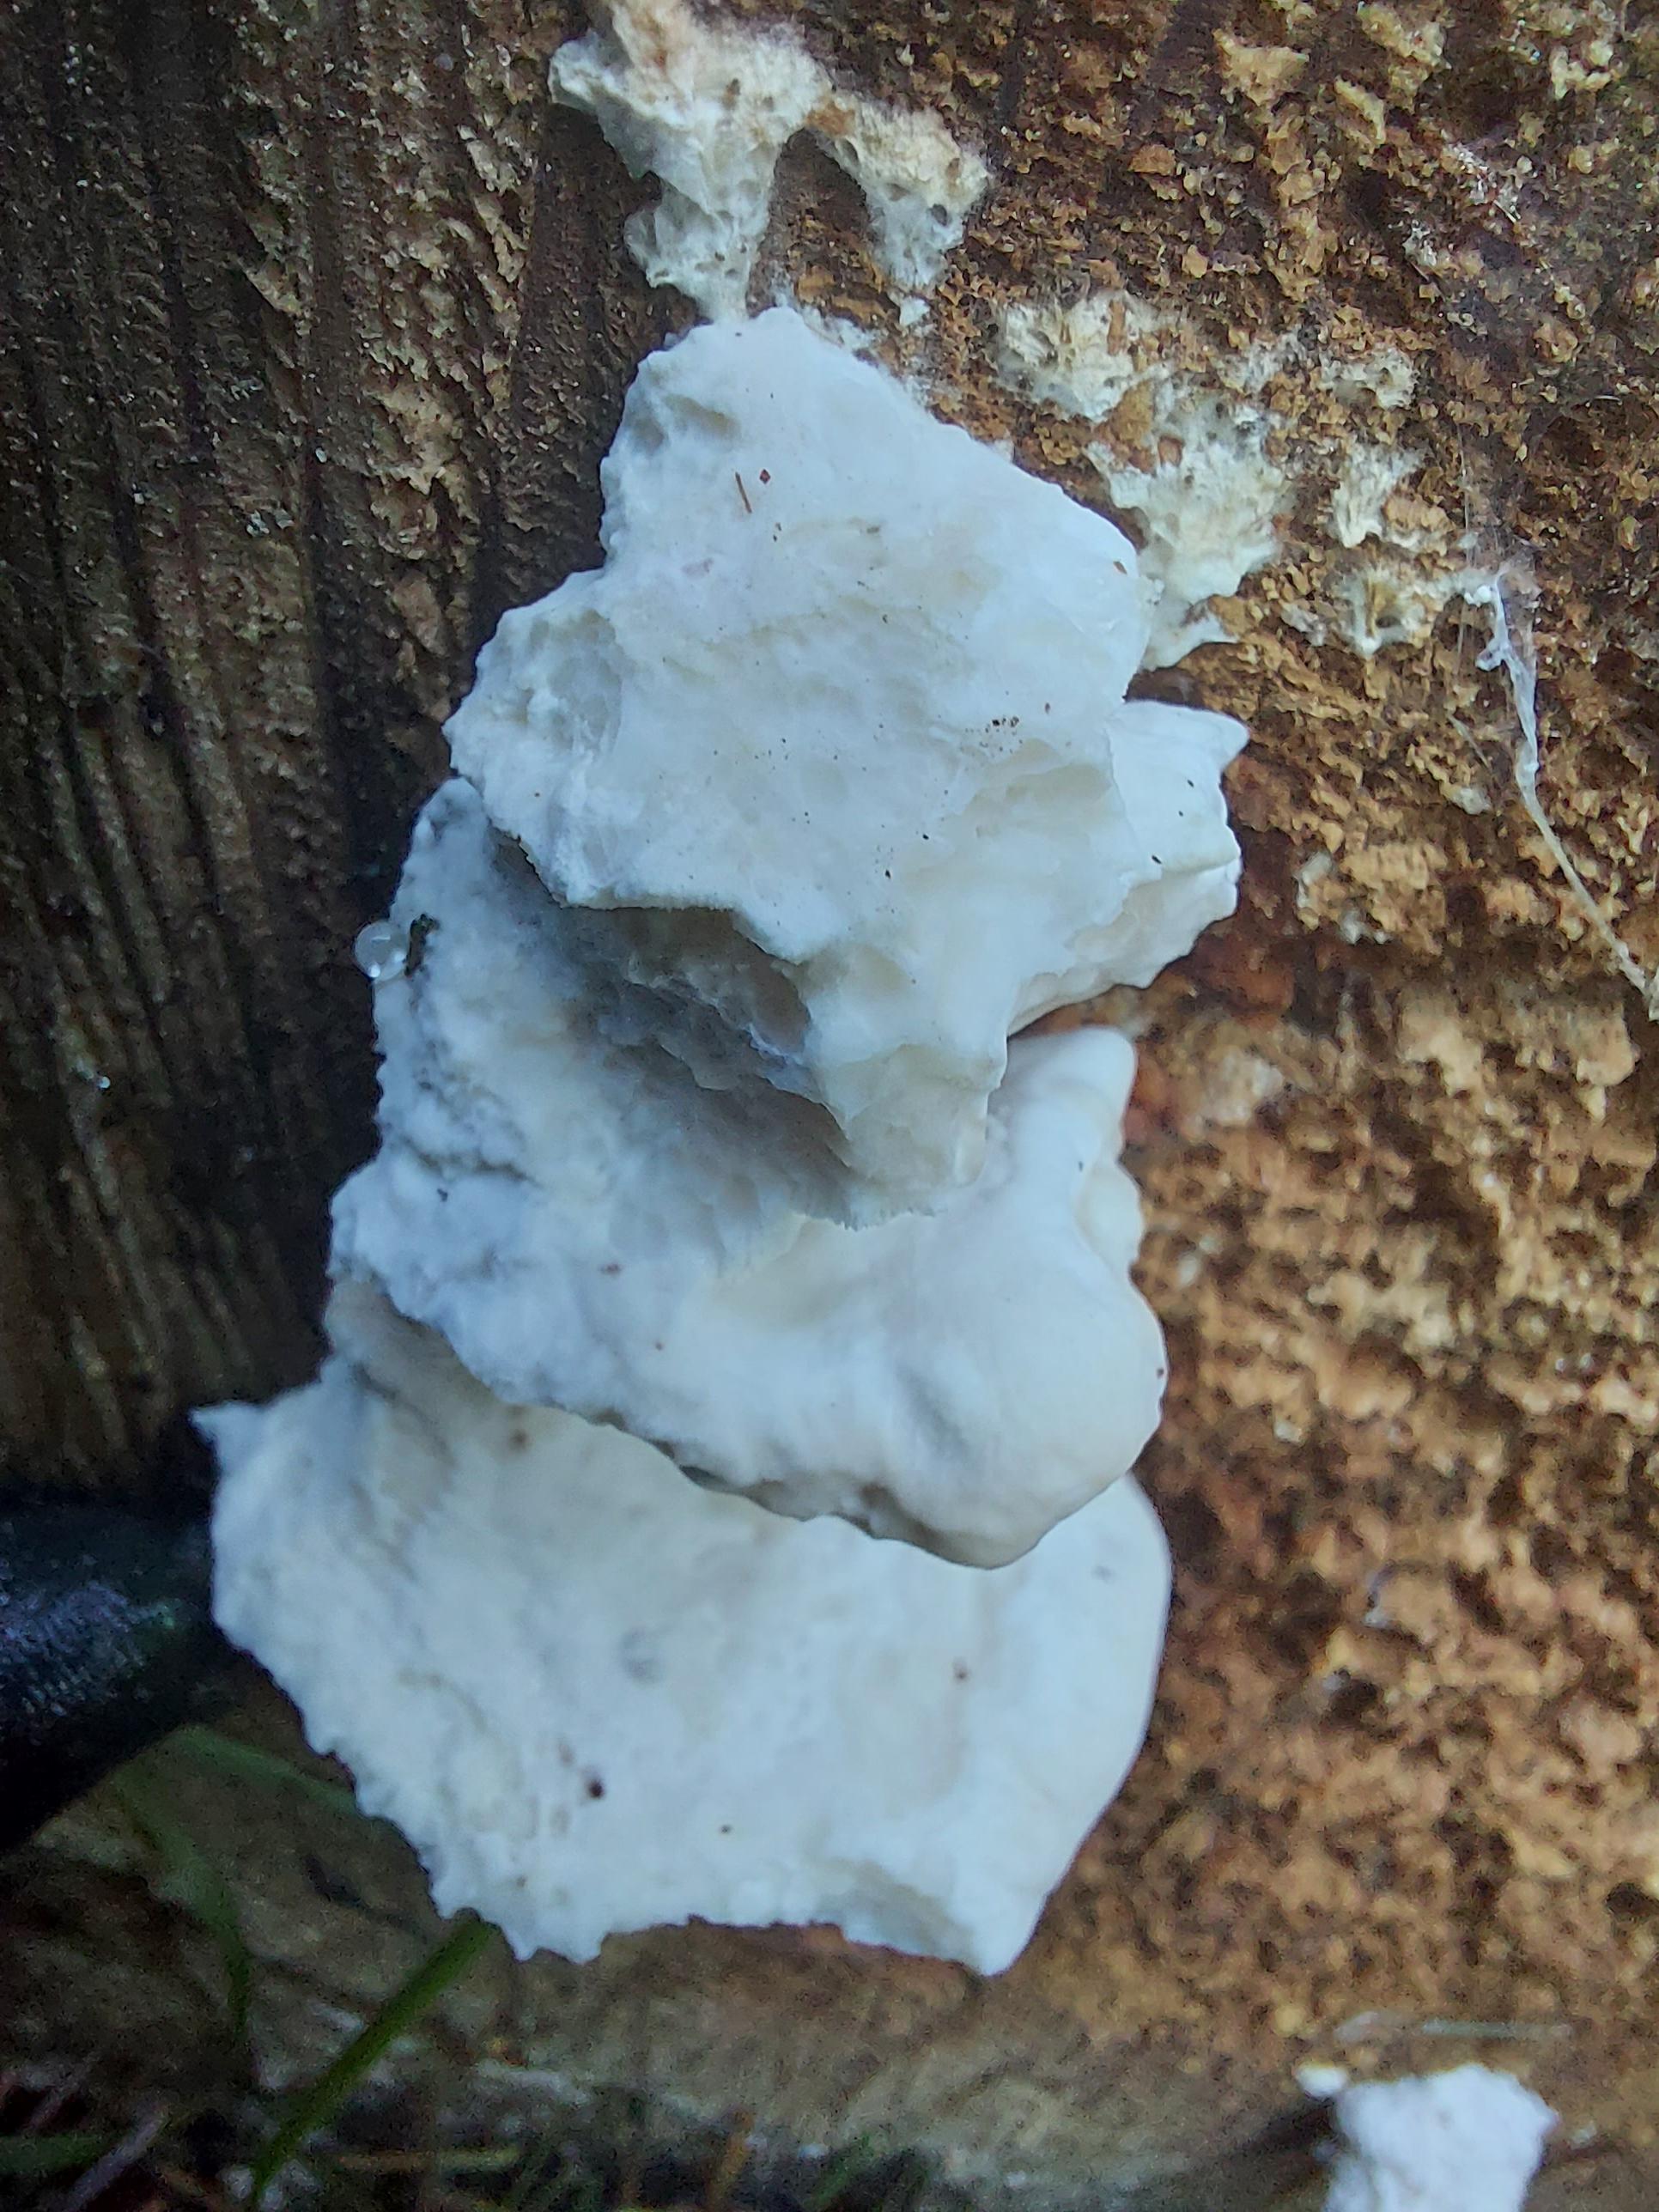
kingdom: Fungi
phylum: Basidiomycota
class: Agaricomycetes
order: Polyporales
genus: Amaropostia
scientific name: Amaropostia stiptica
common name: bitter kødporesvamp
